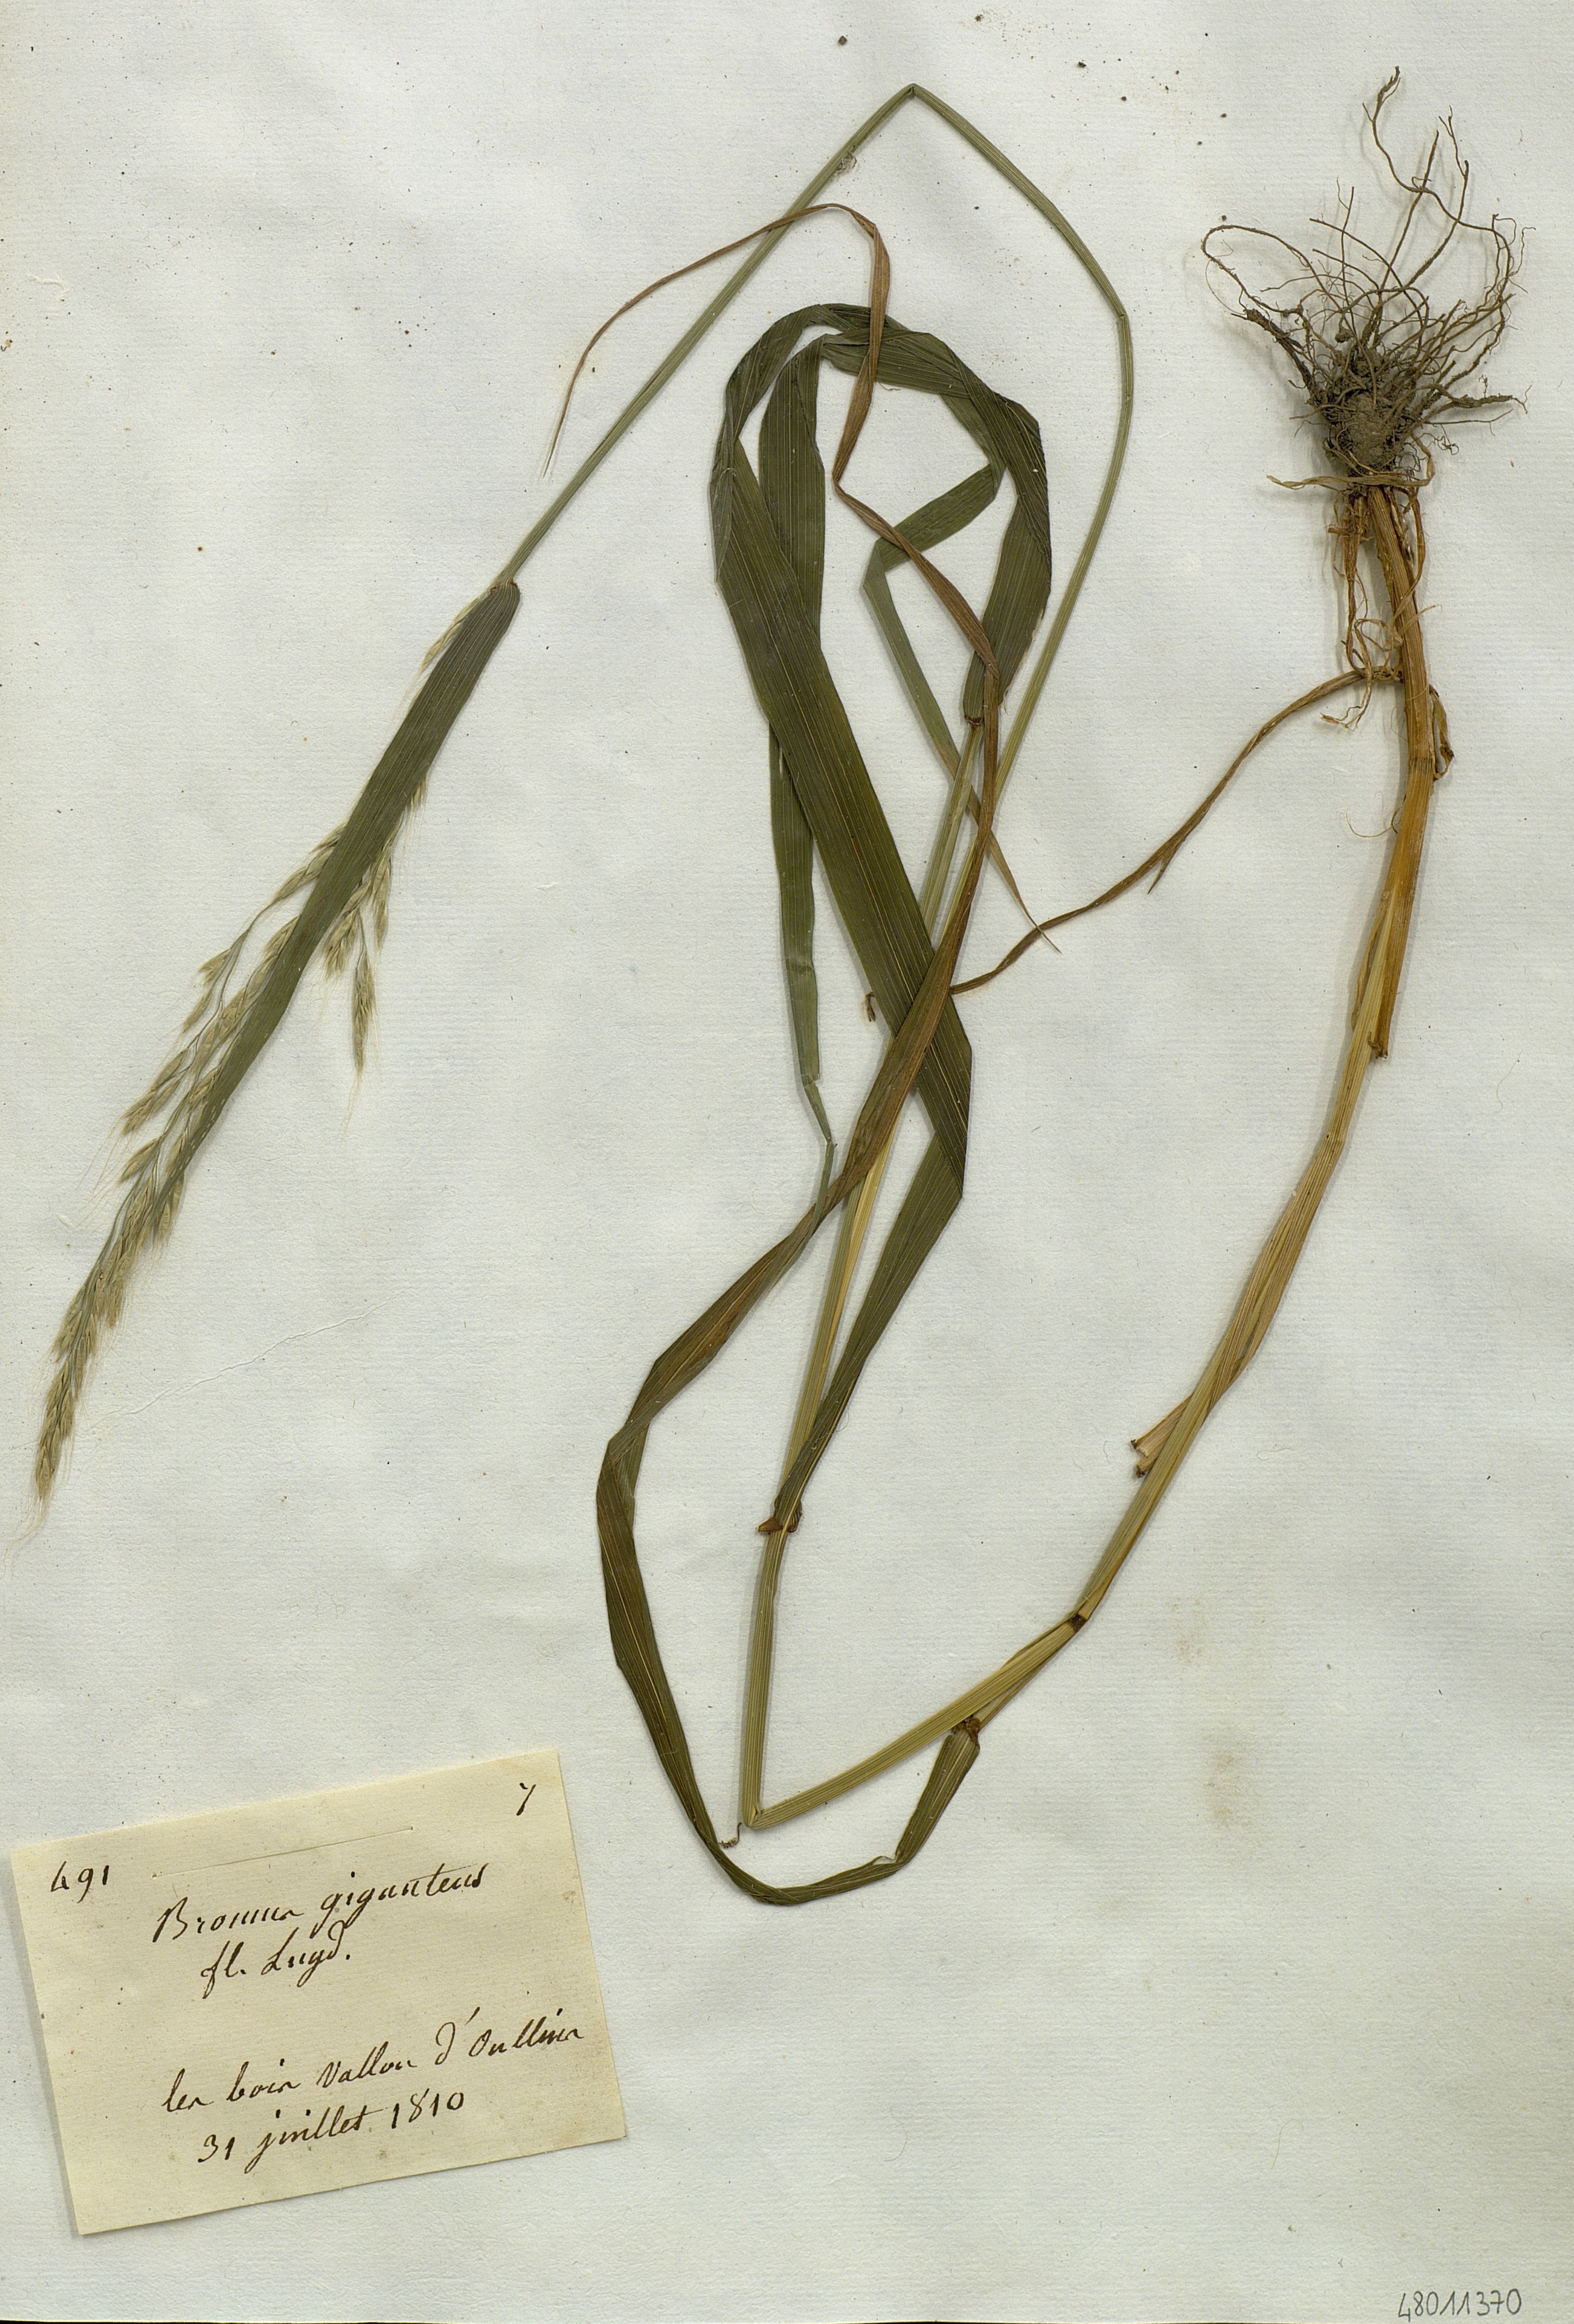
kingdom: Plantae
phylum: Tracheophyta
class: Liliopsida
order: Poales
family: Poaceae
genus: Bromus
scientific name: Bromus ramosus
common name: Hairy brome
